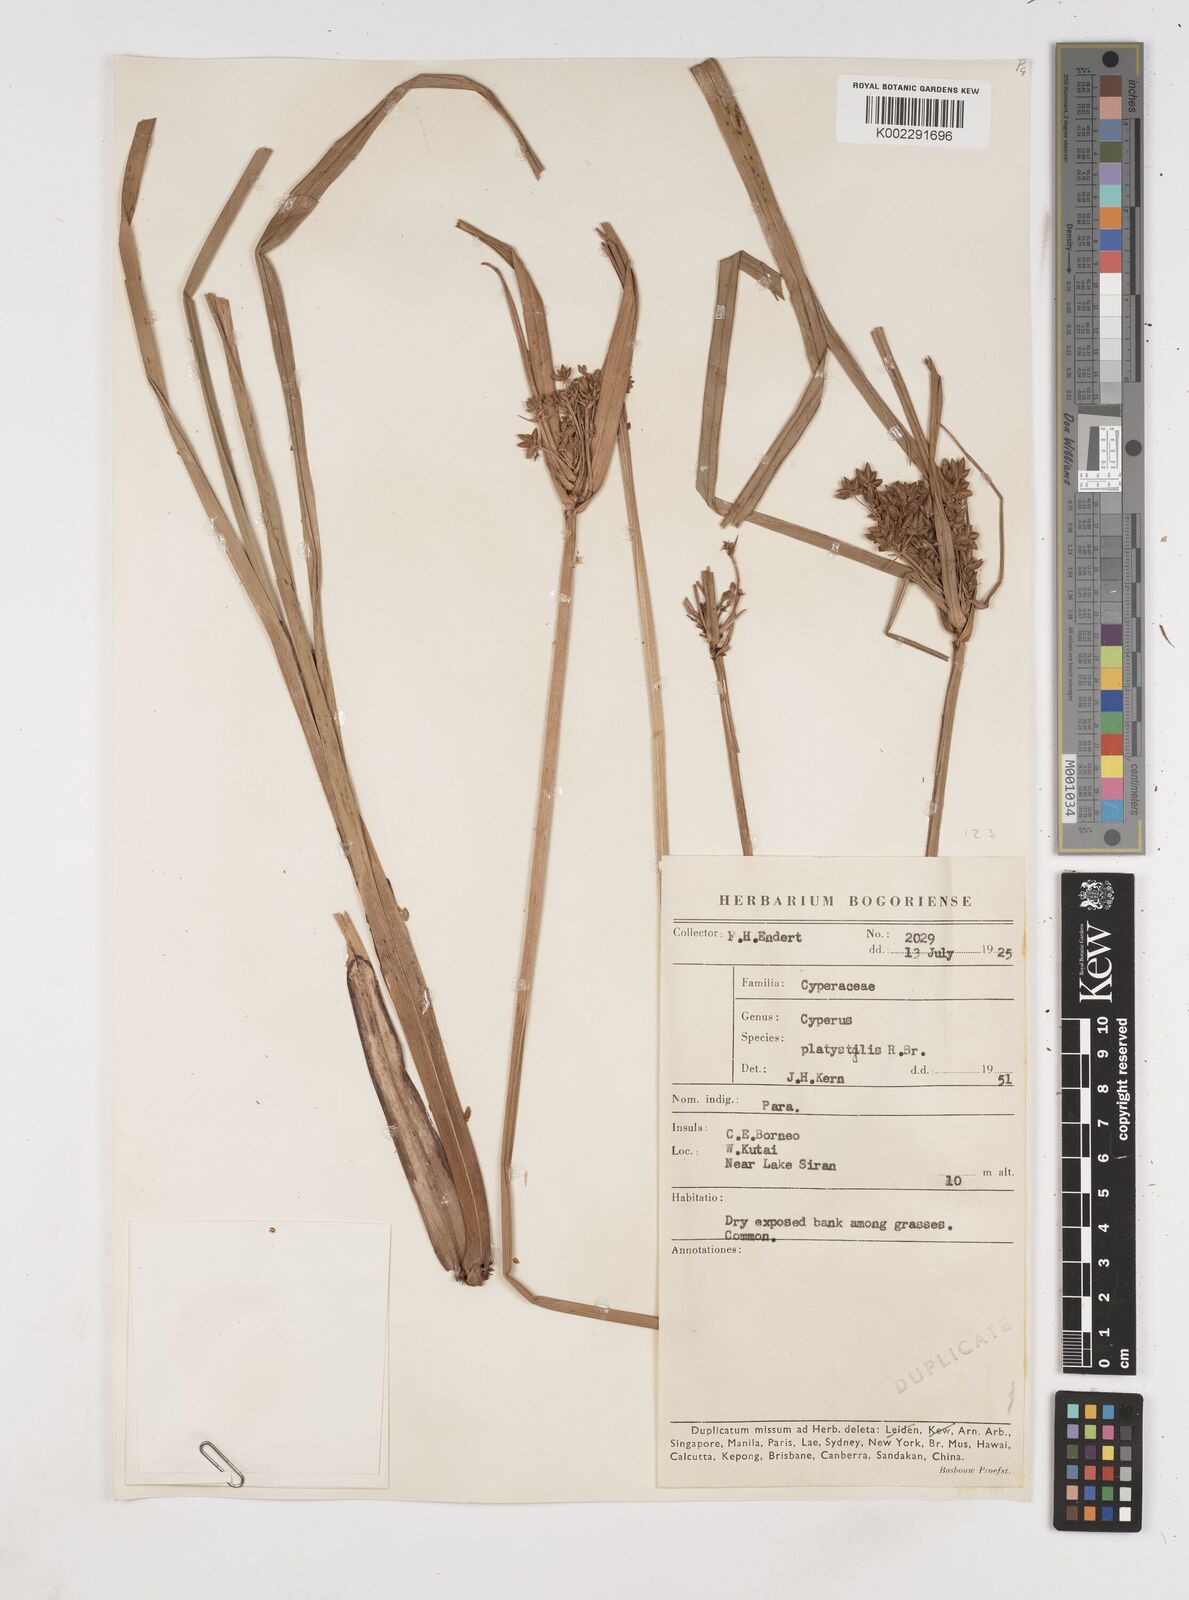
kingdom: Plantae
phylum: Tracheophyta
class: Liliopsida
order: Poales
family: Cyperaceae
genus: Cyperus
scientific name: Cyperus platystylis
